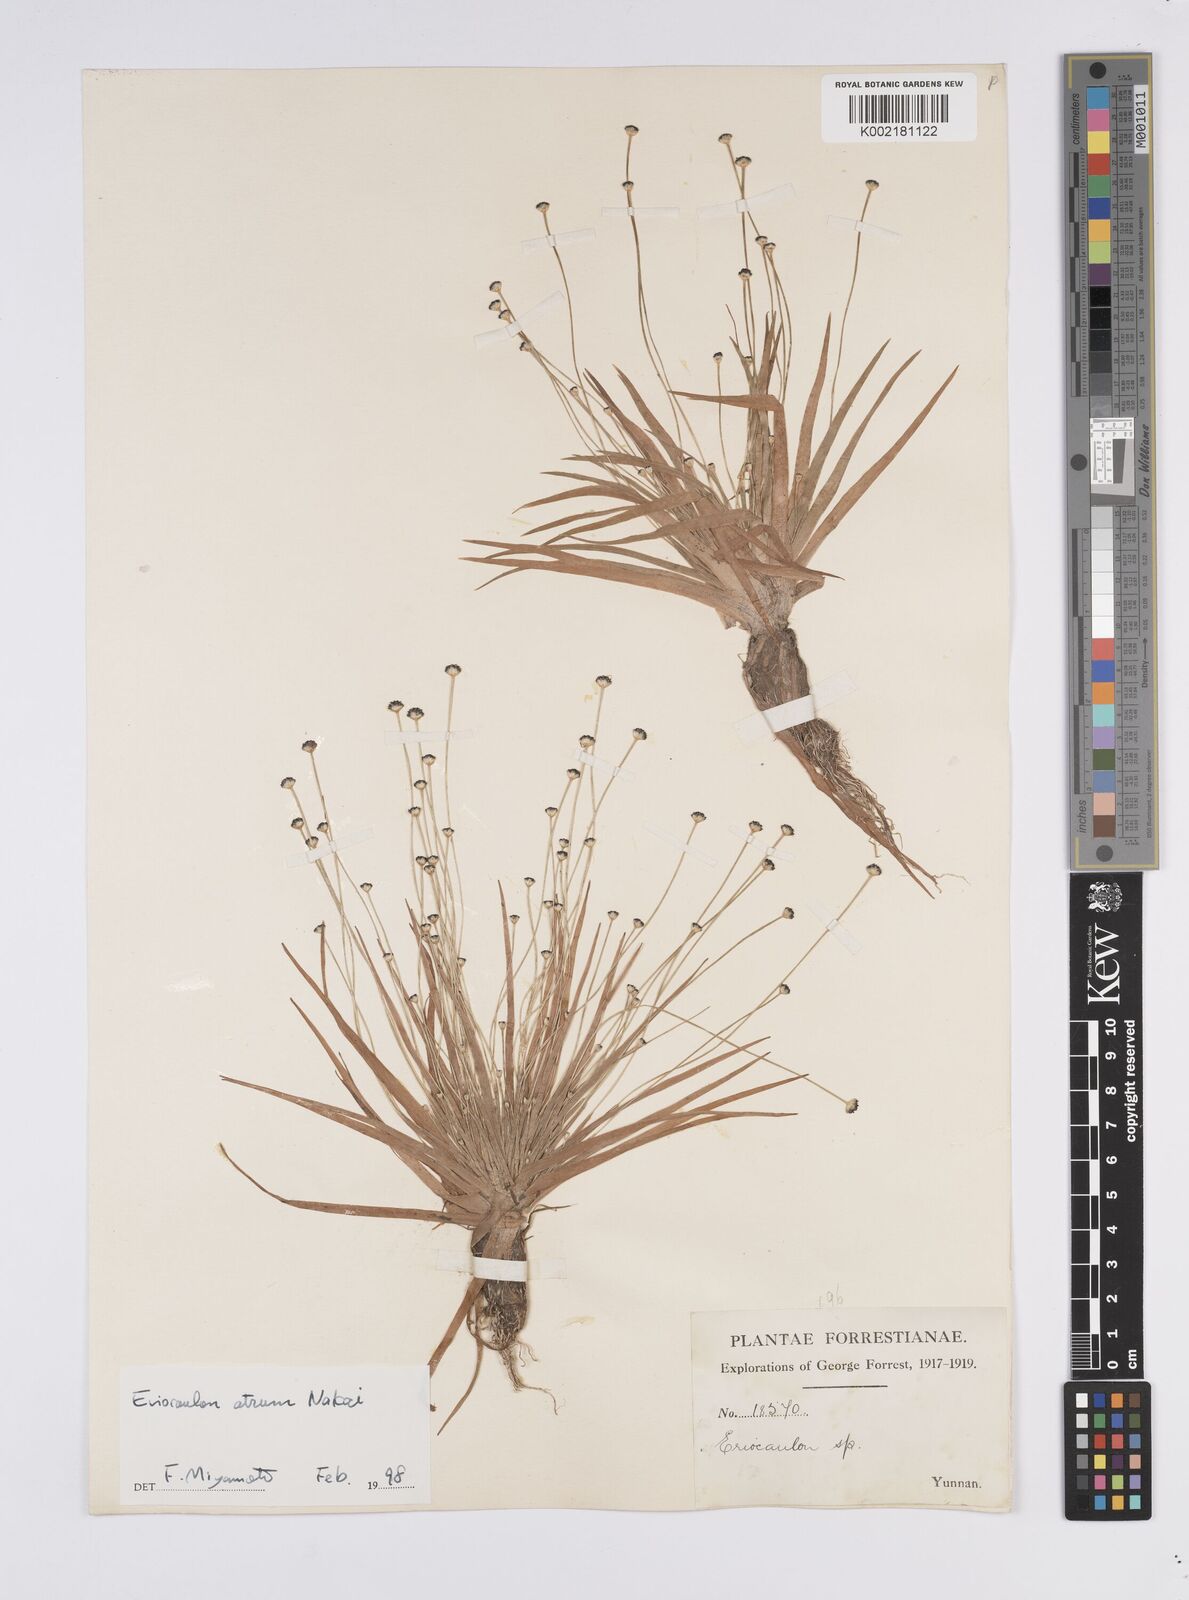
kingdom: Plantae
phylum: Tracheophyta
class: Liliopsida
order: Poales
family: Eriocaulaceae
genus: Eriocaulon
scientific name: Eriocaulon atrum
